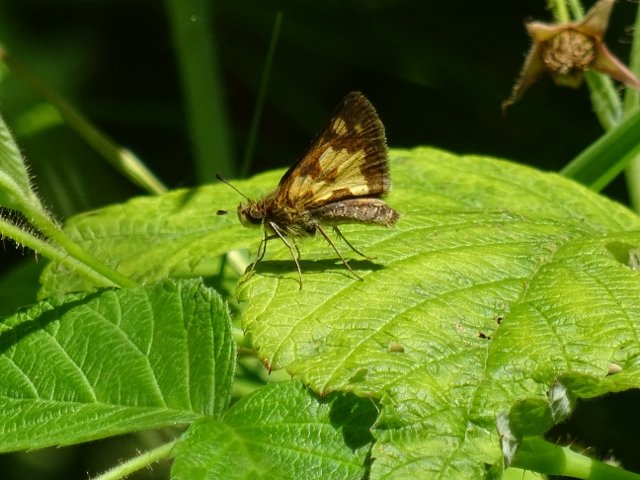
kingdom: Animalia
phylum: Arthropoda
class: Insecta
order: Lepidoptera
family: Hesperiidae
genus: Polites
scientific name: Polites coras
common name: Peck's Skipper
